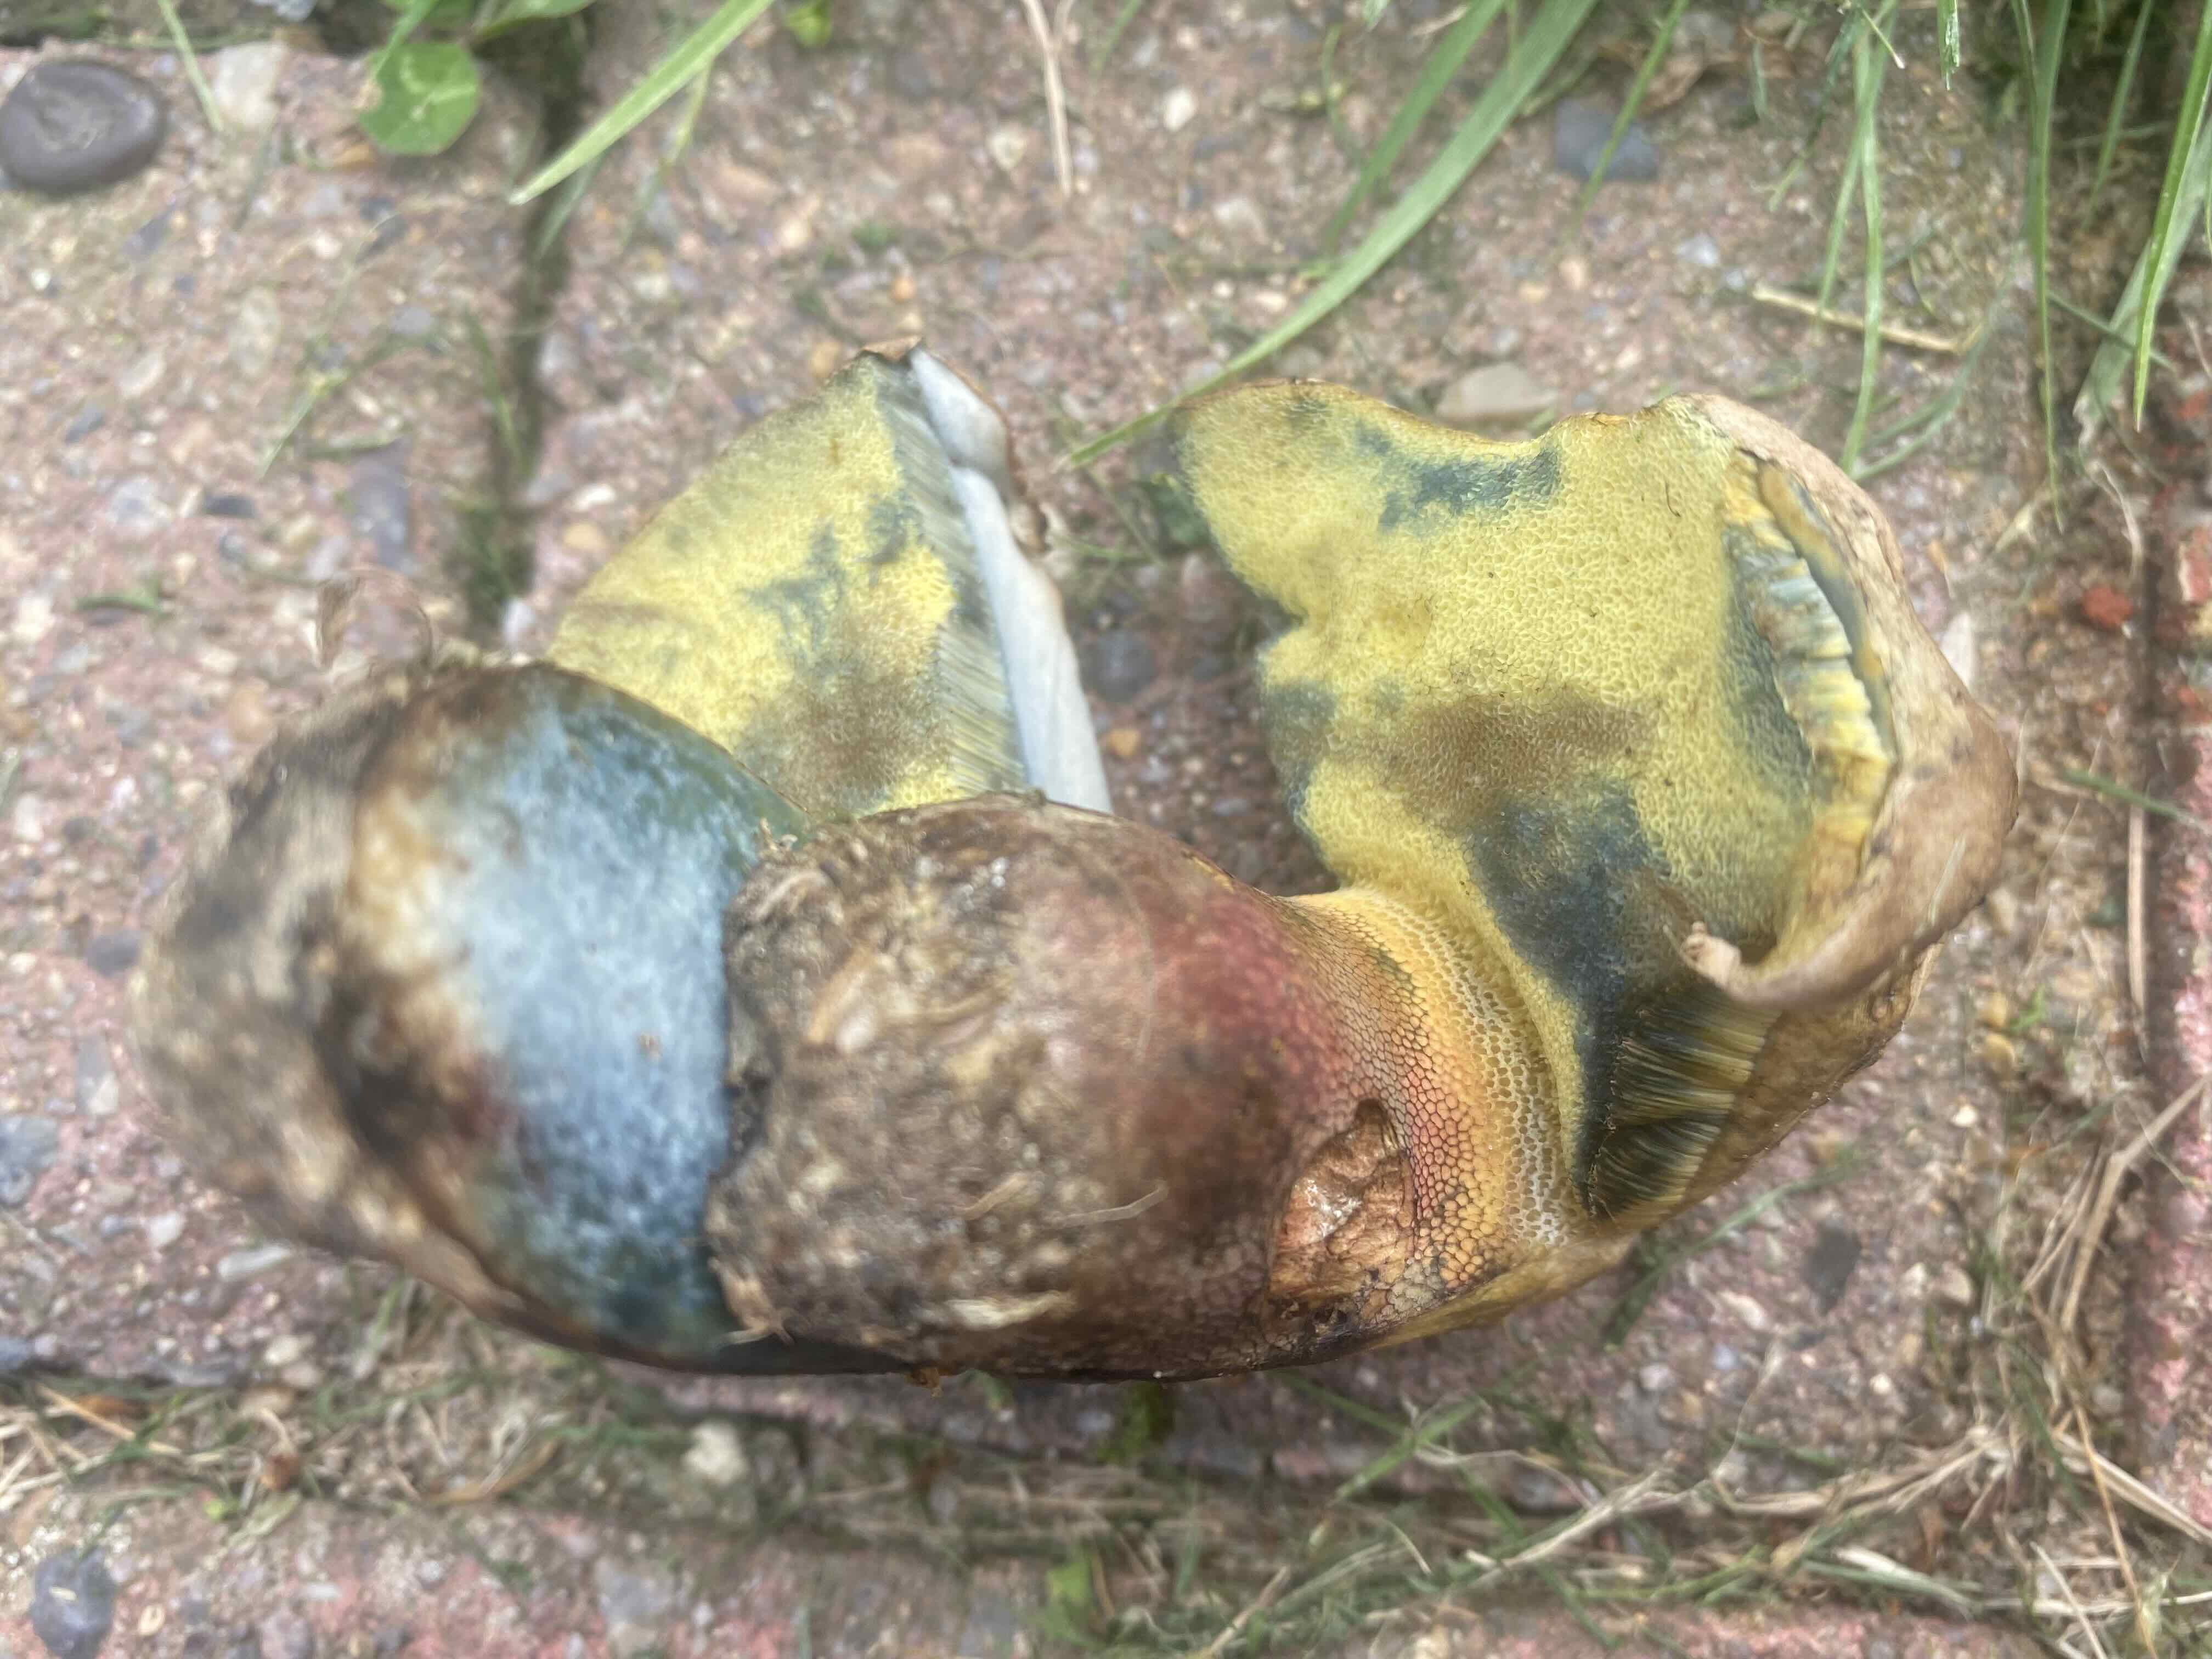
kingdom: Fungi
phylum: Basidiomycota
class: Agaricomycetes
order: Boletales
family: Boletaceae
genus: Caloboletus
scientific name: Caloboletus calopus
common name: skønfodet rørhat
